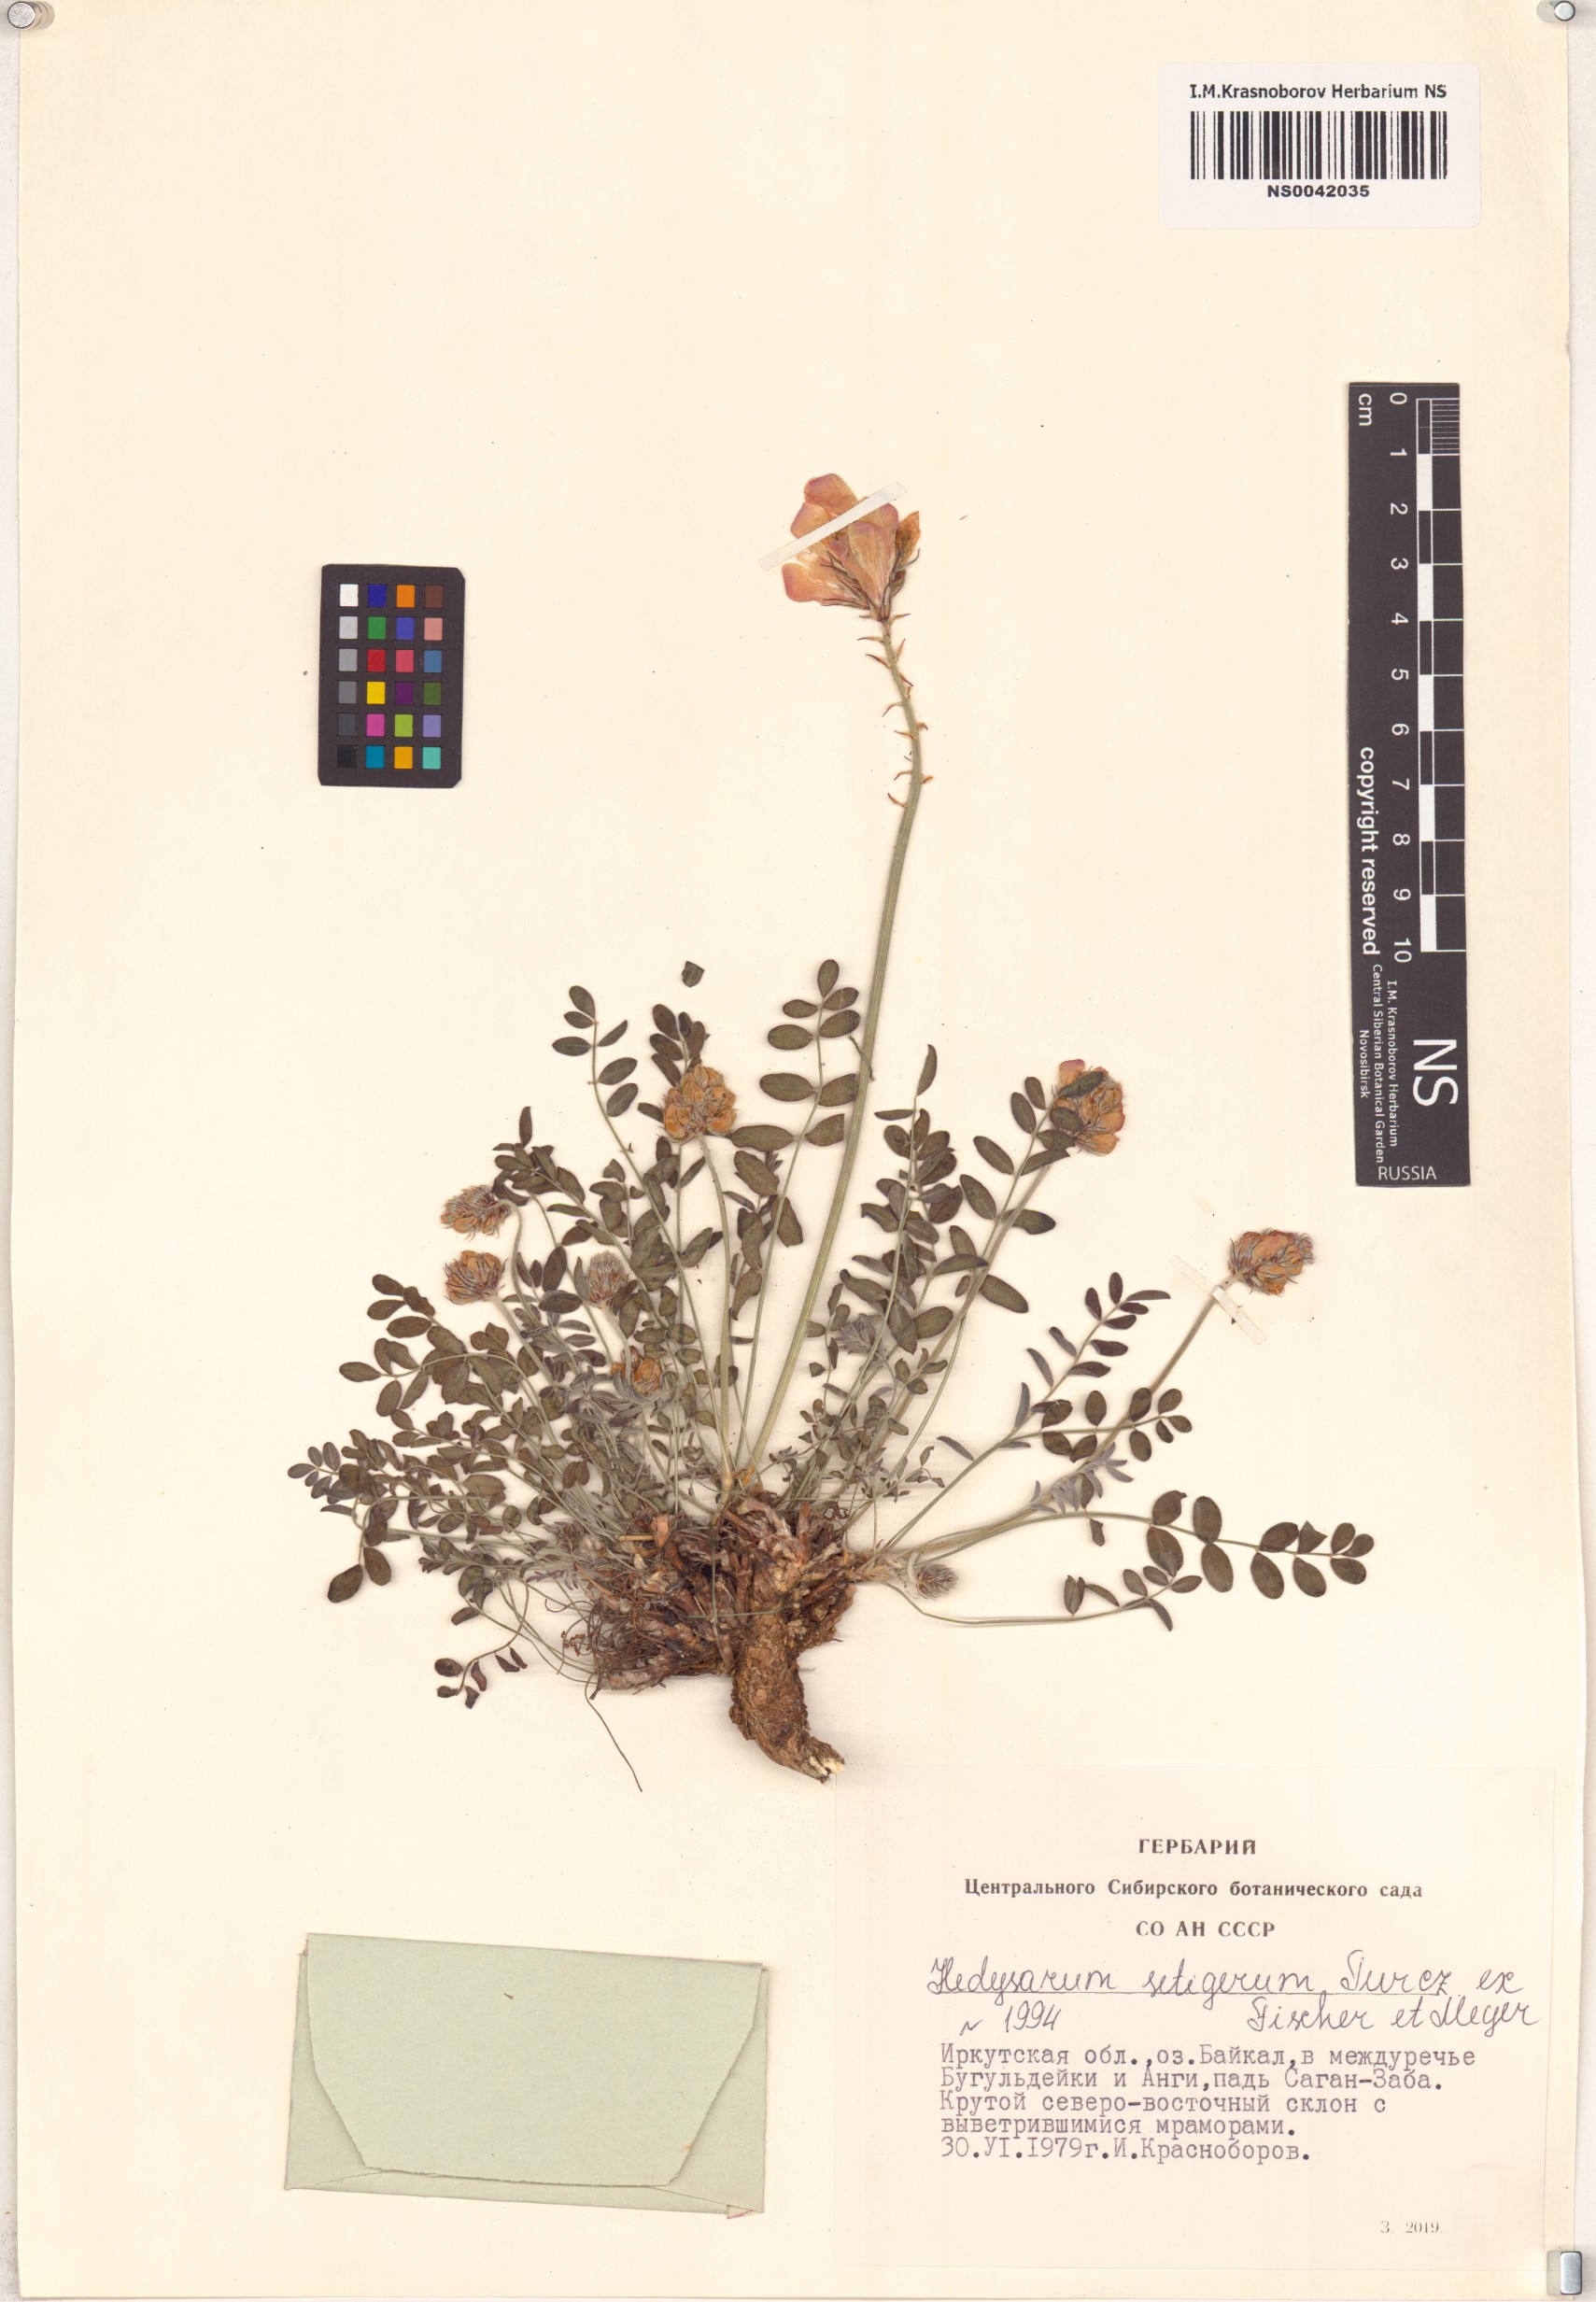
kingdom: Plantae
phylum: Tracheophyta
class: Magnoliopsida
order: Fabales
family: Fabaceae
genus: Hedysarum
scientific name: Hedysarum setigerum
